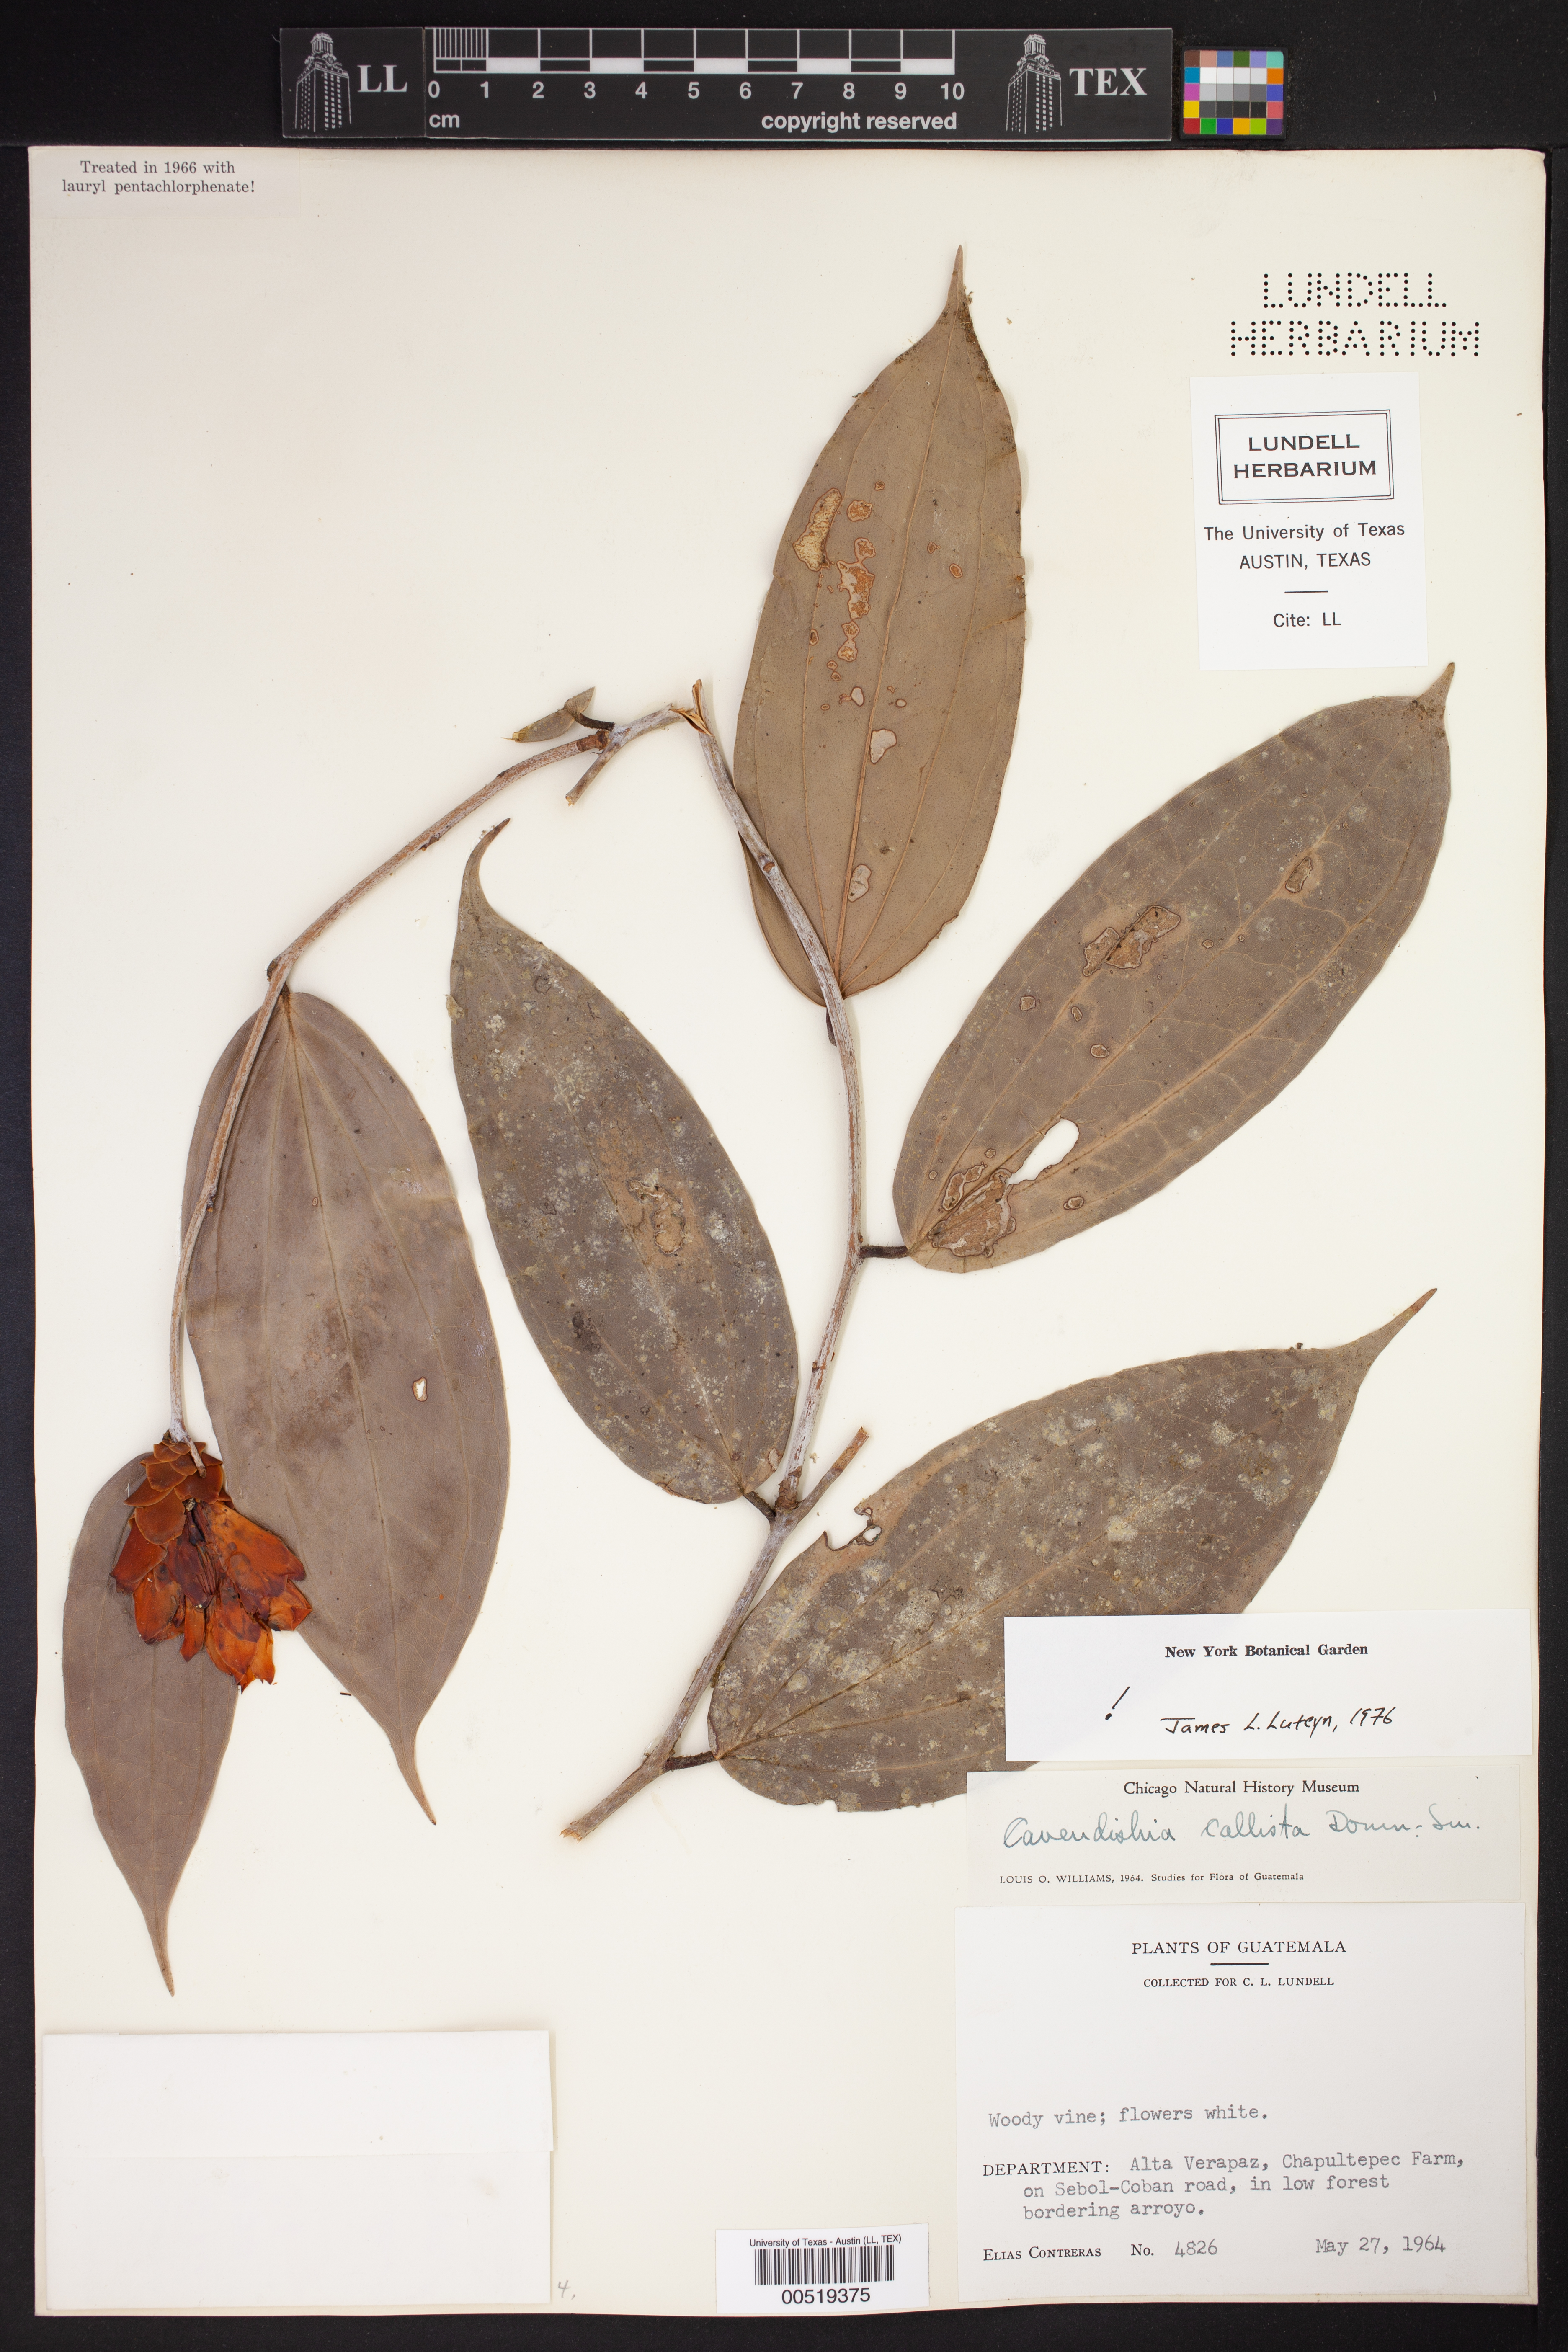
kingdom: Plantae
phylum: Tracheophyta
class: Magnoliopsida
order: Ericales
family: Ericaceae
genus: Cavendishia
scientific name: Cavendishia callista
